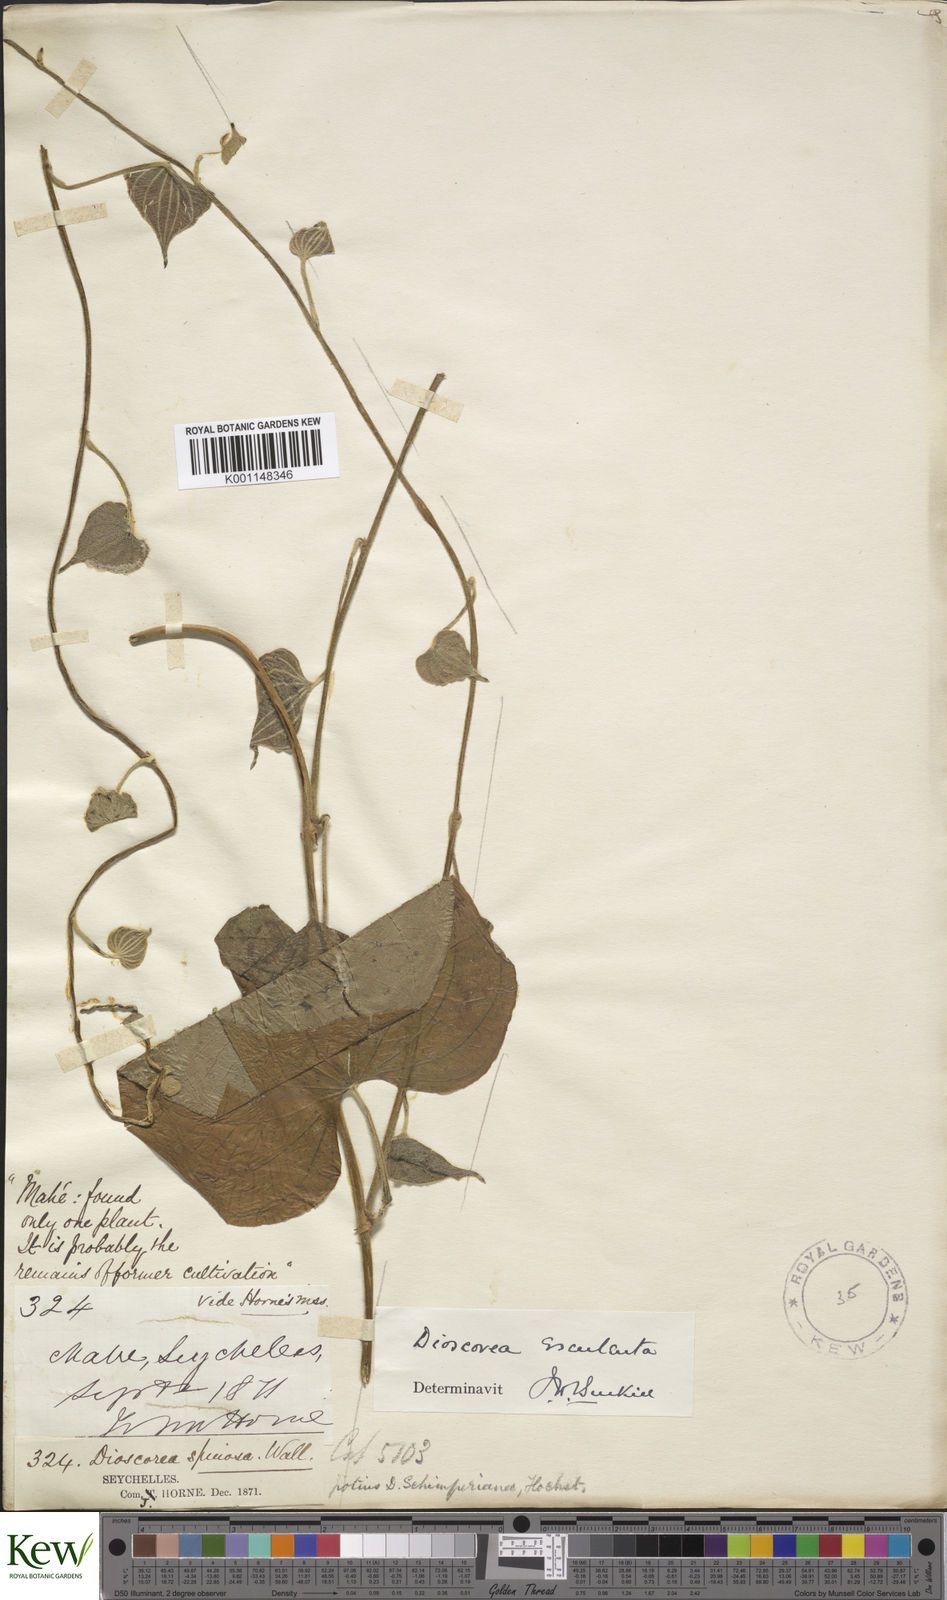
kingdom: Plantae
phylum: Tracheophyta
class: Liliopsida
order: Dioscoreales
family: Dioscoreaceae
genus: Dioscorea
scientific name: Dioscorea esculenta
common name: Chinese yam
